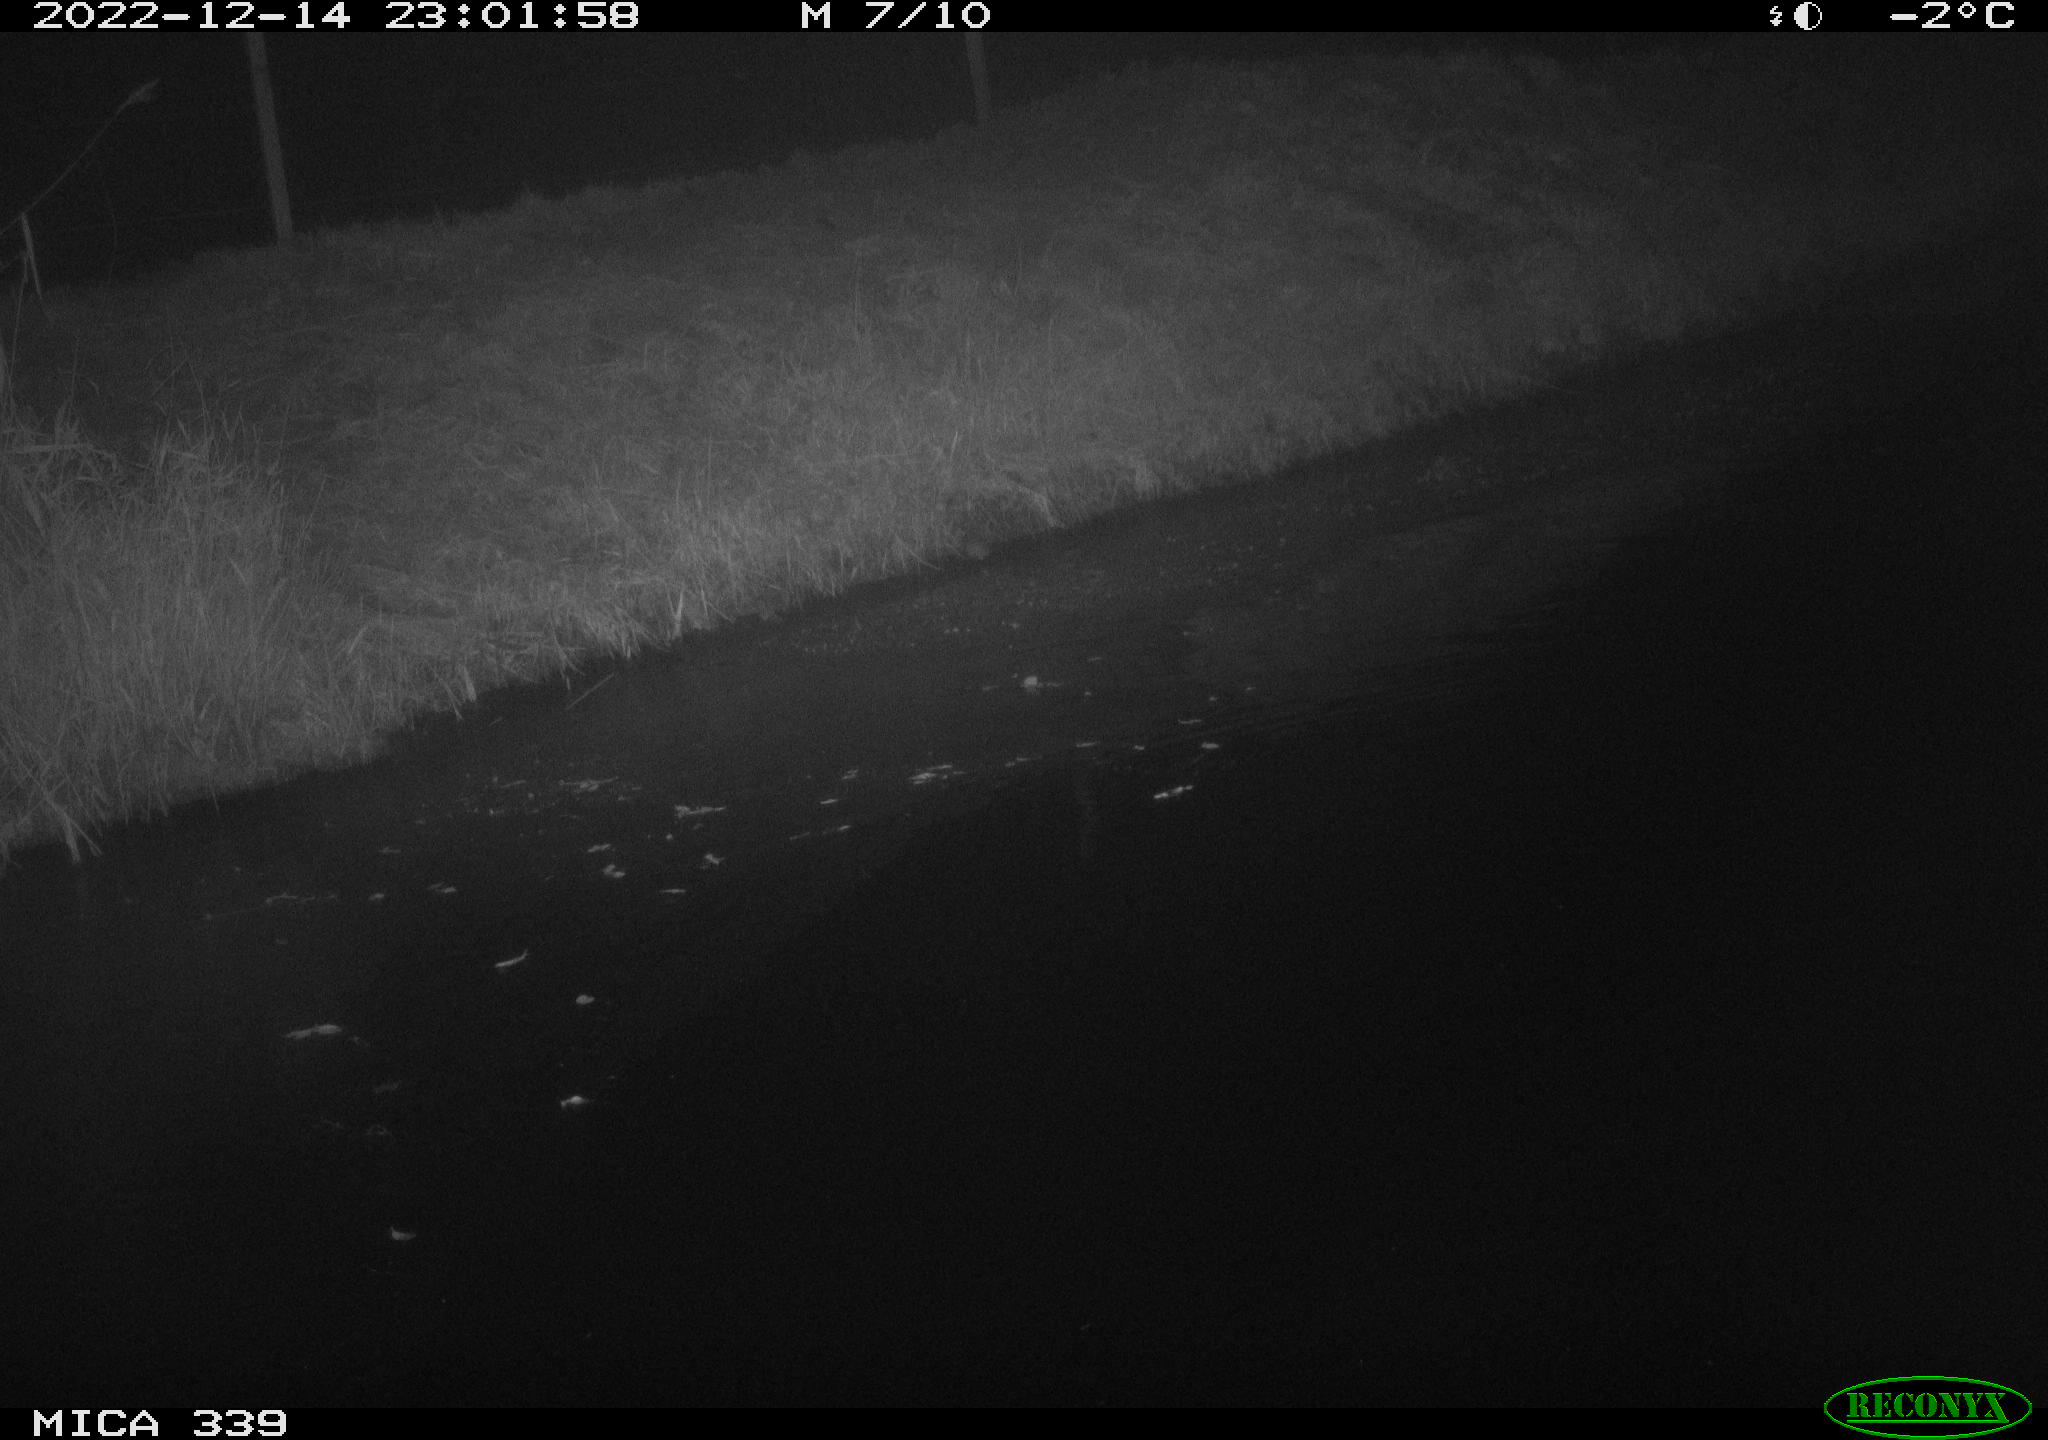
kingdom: Animalia
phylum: Chordata
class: Mammalia
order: Rodentia
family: Muridae
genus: Rattus
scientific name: Rattus norvegicus
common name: Brown rat
